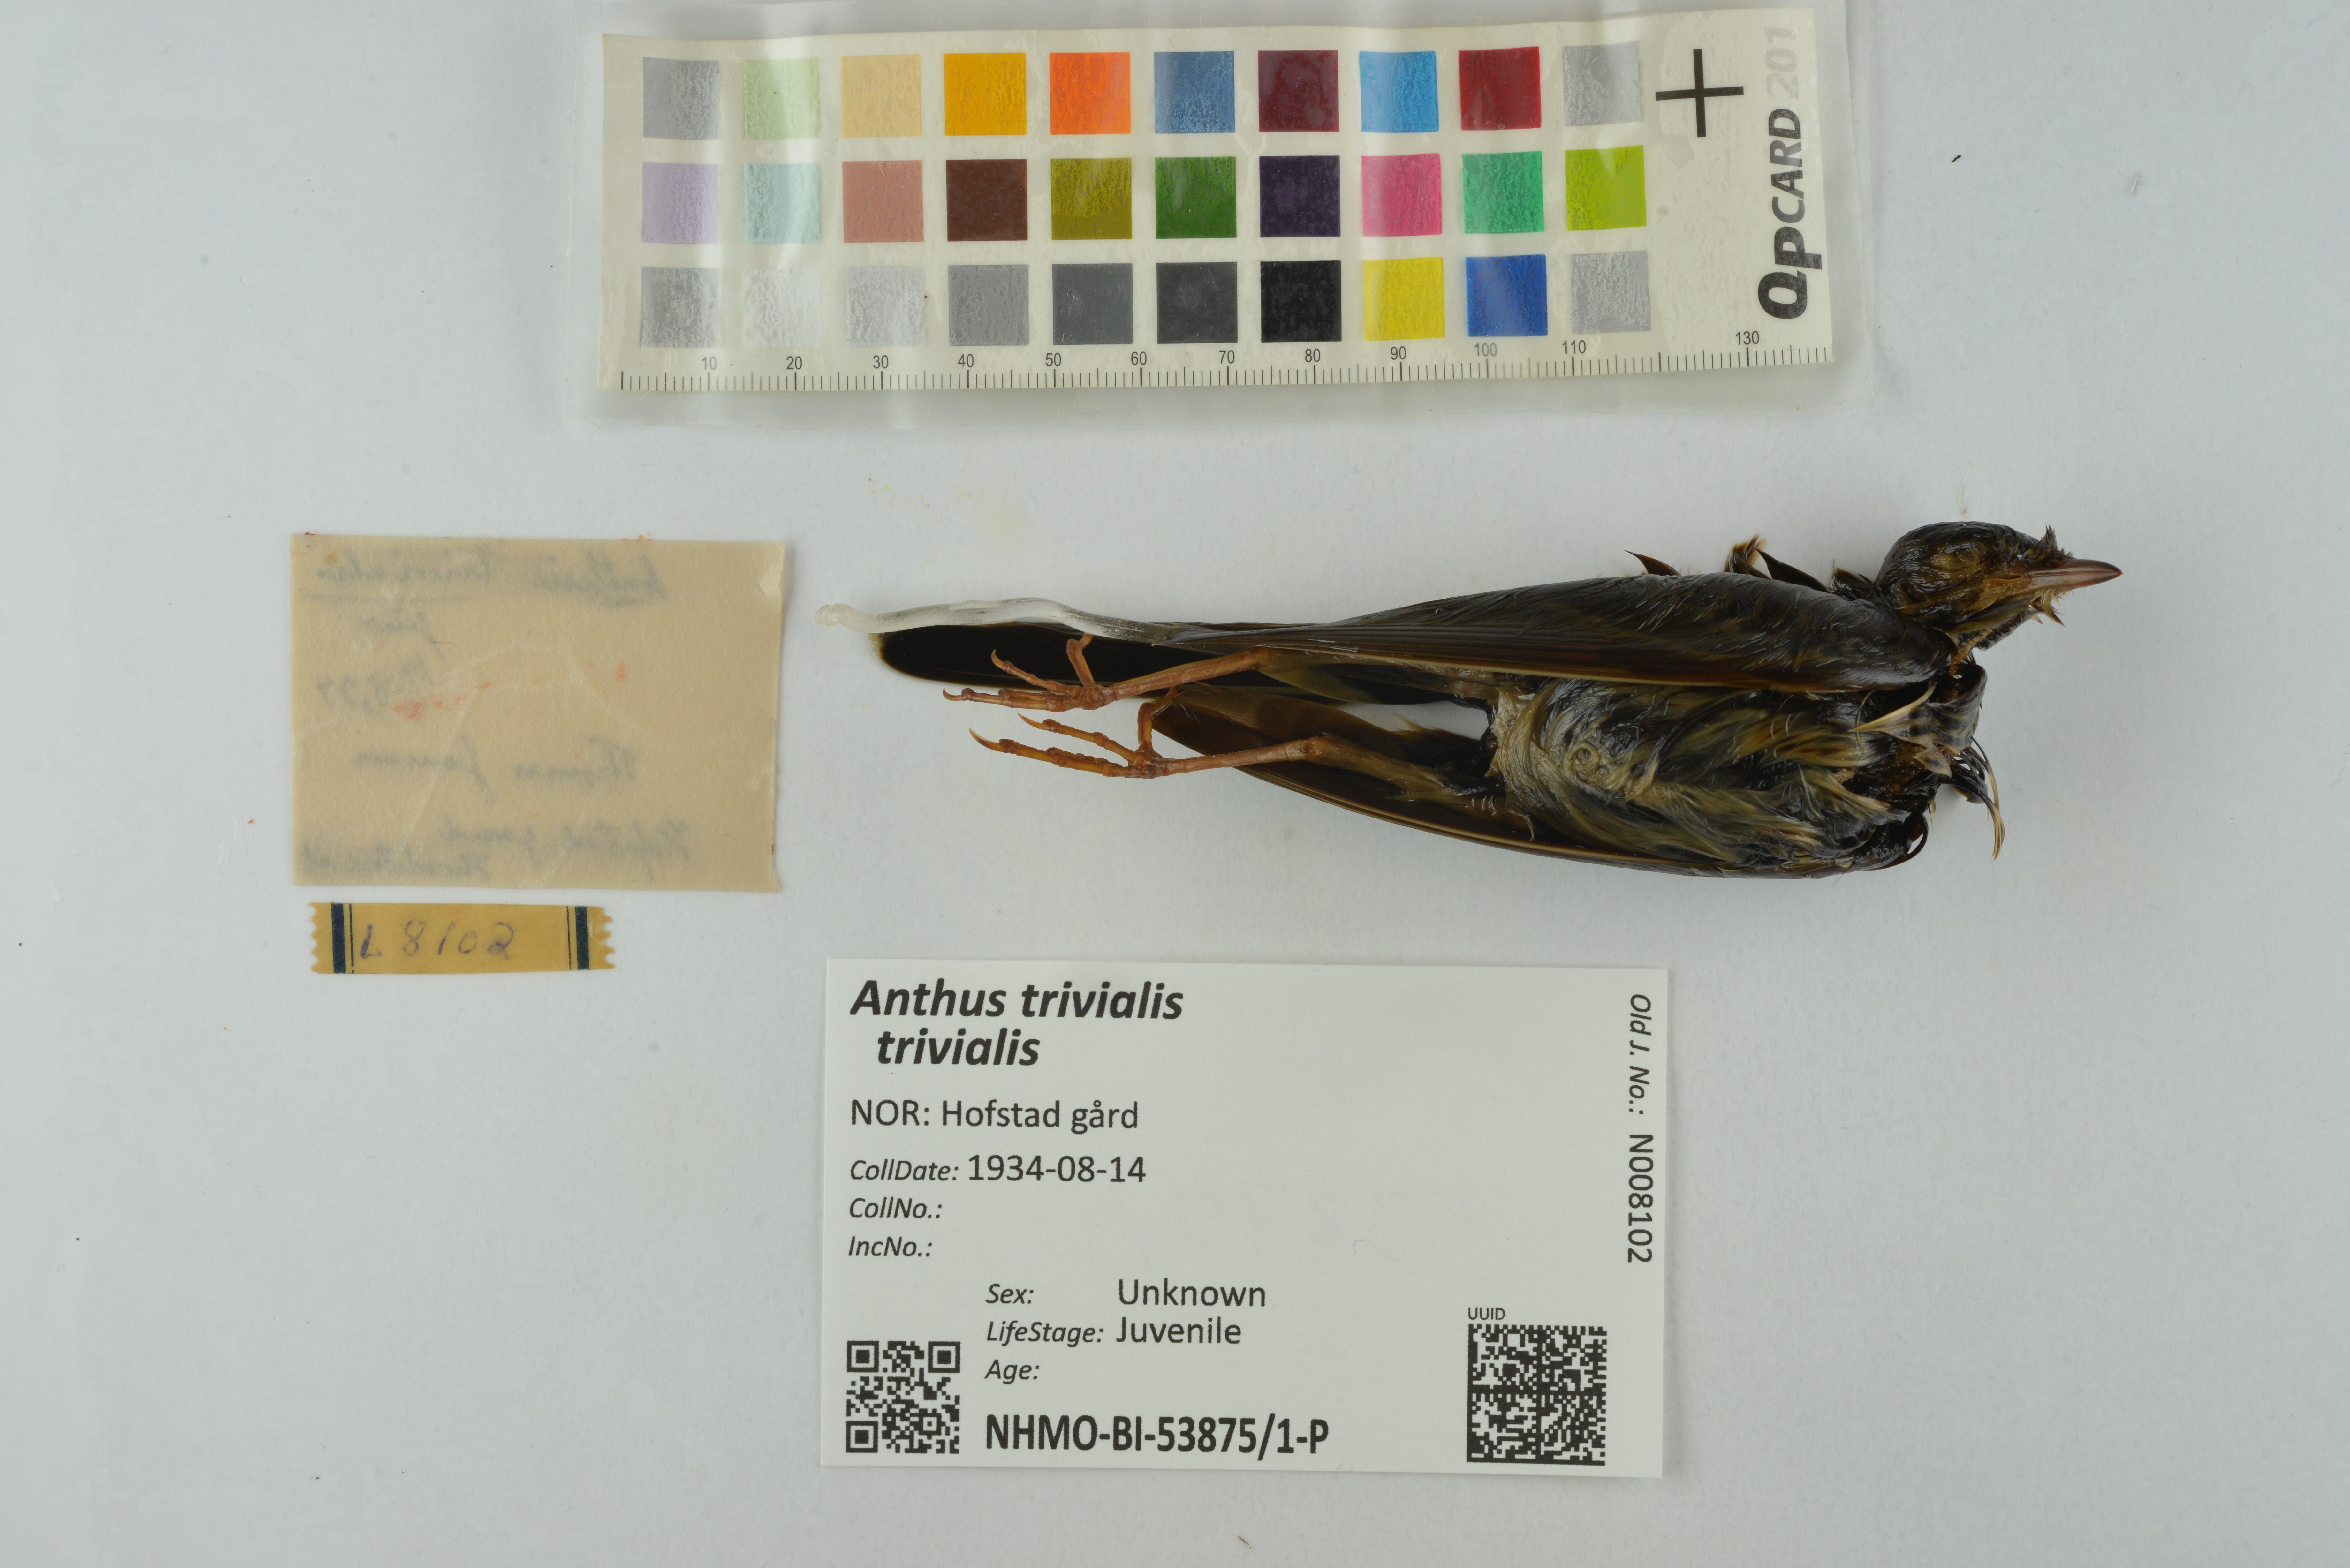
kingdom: Animalia
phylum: Chordata
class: Aves
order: Passeriformes
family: Motacillidae
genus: Anthus
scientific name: Anthus trivialis
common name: Tree pipit
